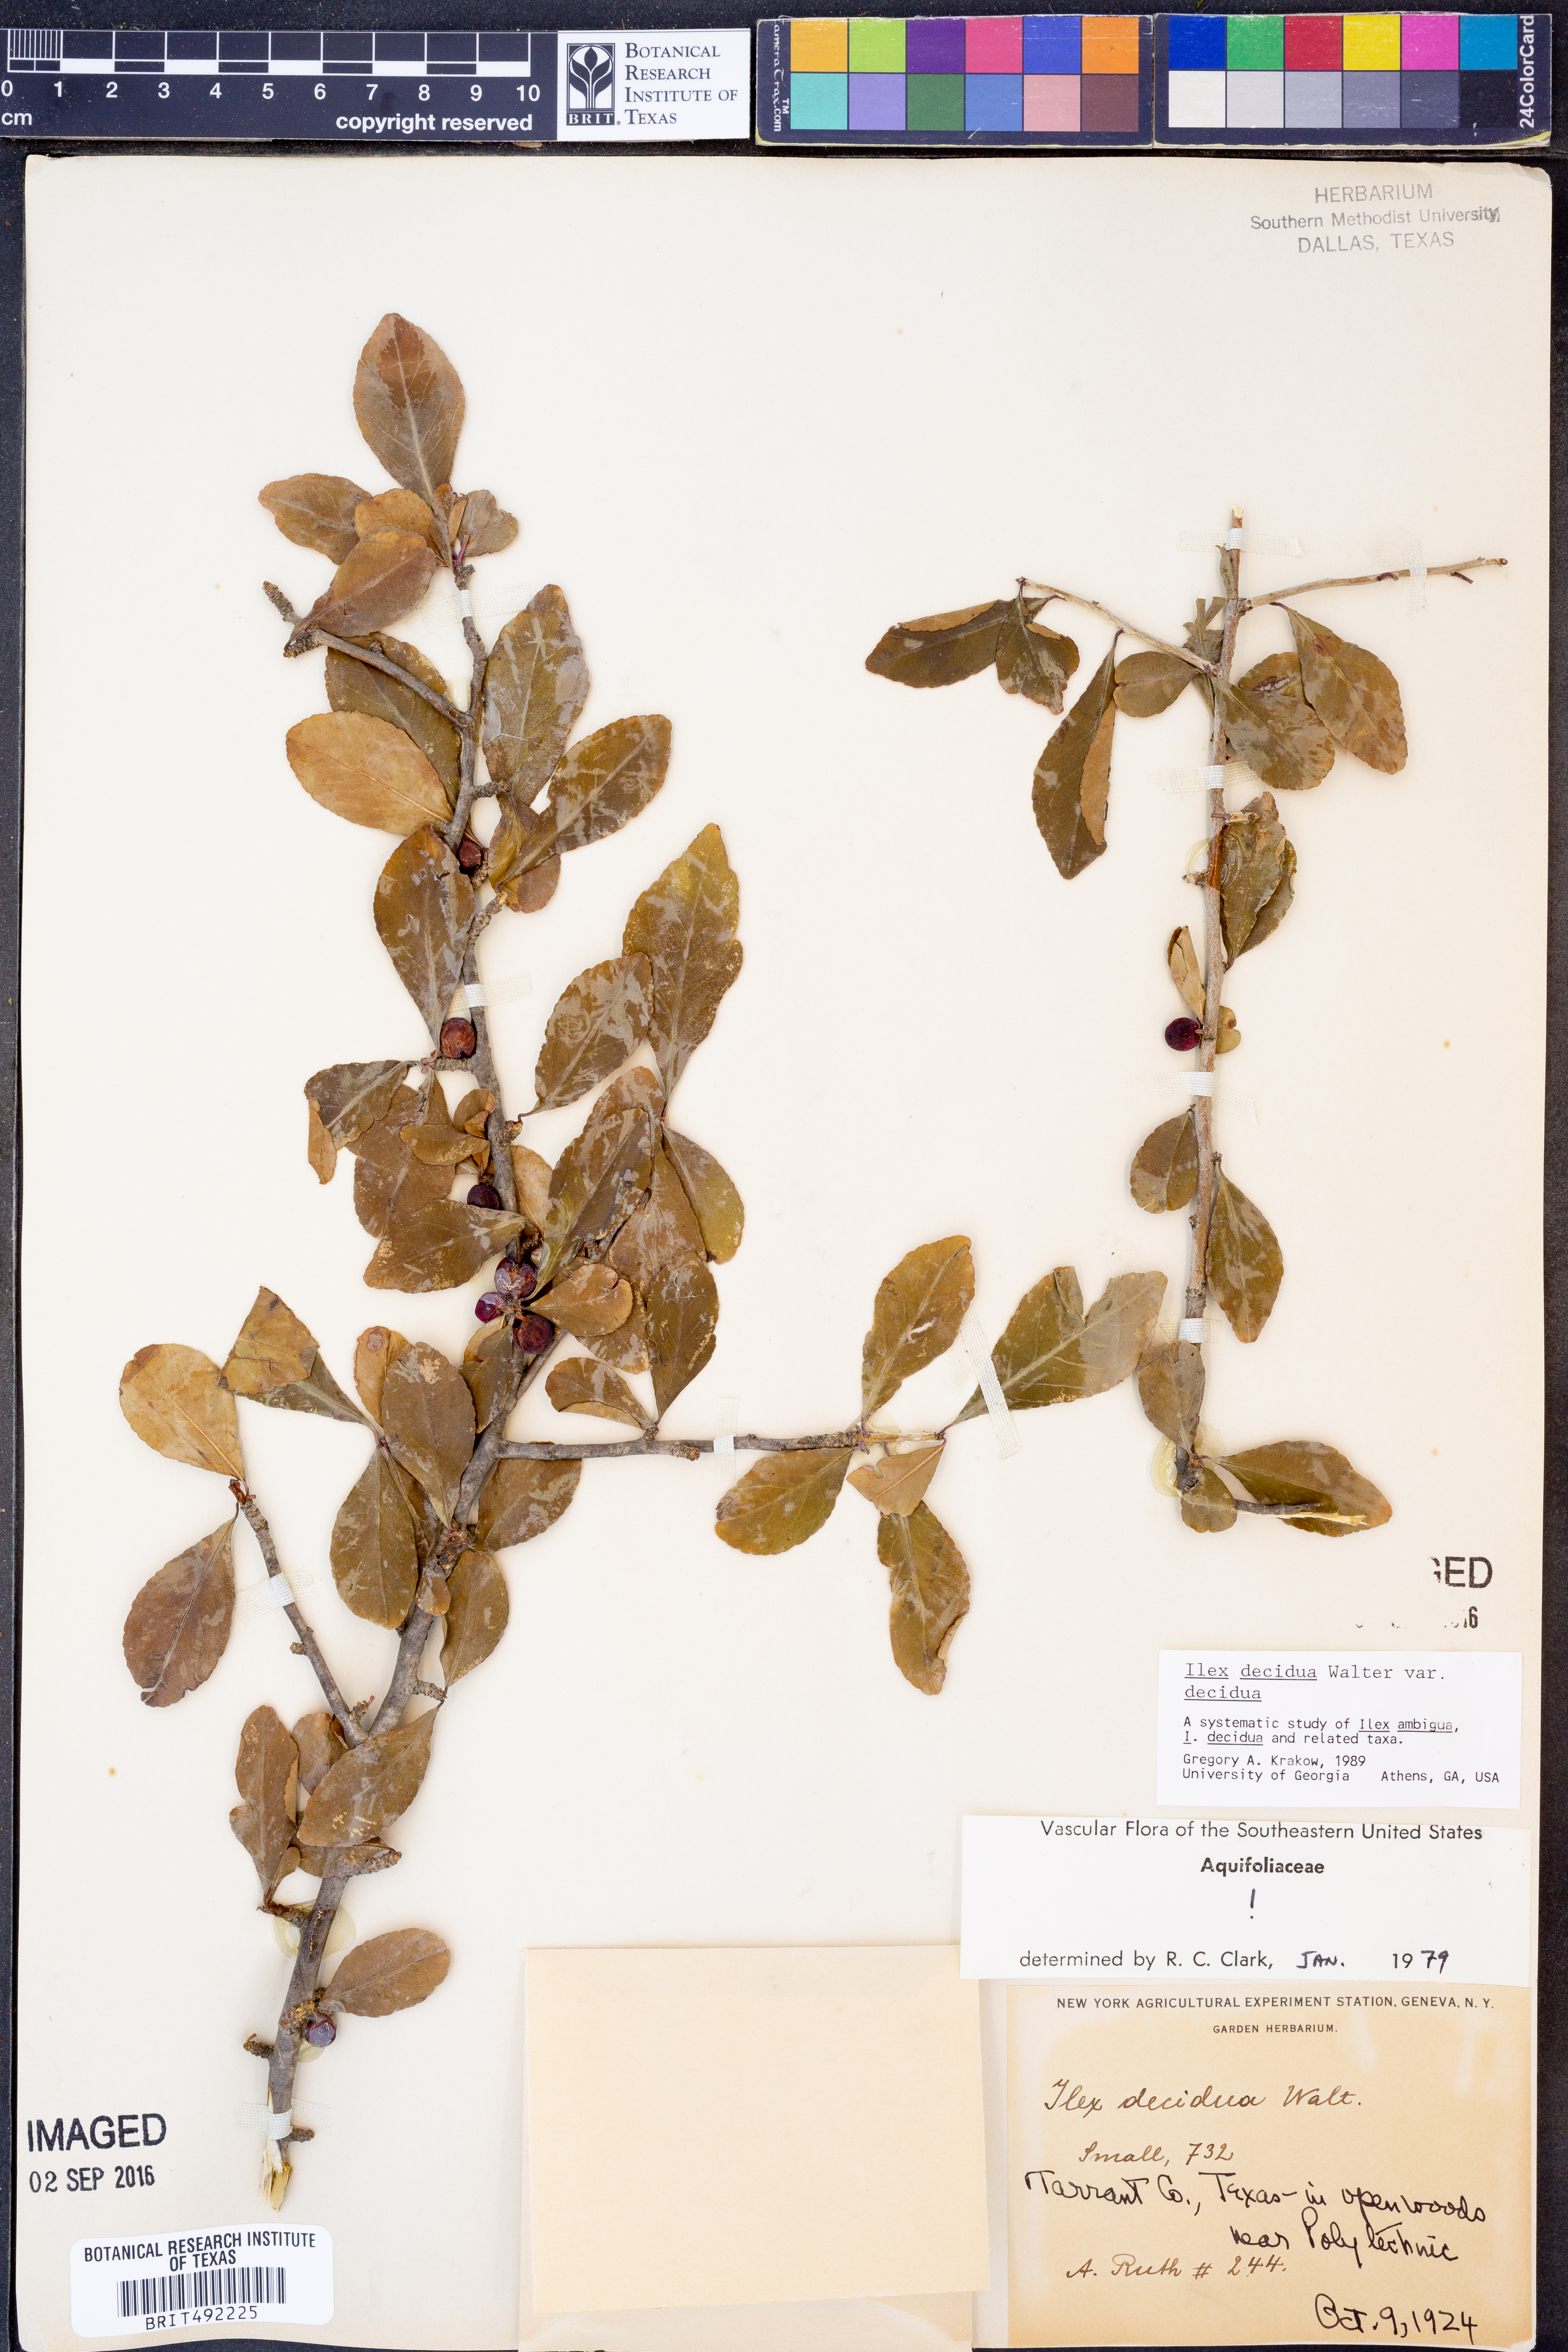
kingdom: Plantae
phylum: Tracheophyta
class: Magnoliopsida
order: Aquifoliales
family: Aquifoliaceae
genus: Ilex
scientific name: Ilex decidua
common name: Possum-haw
